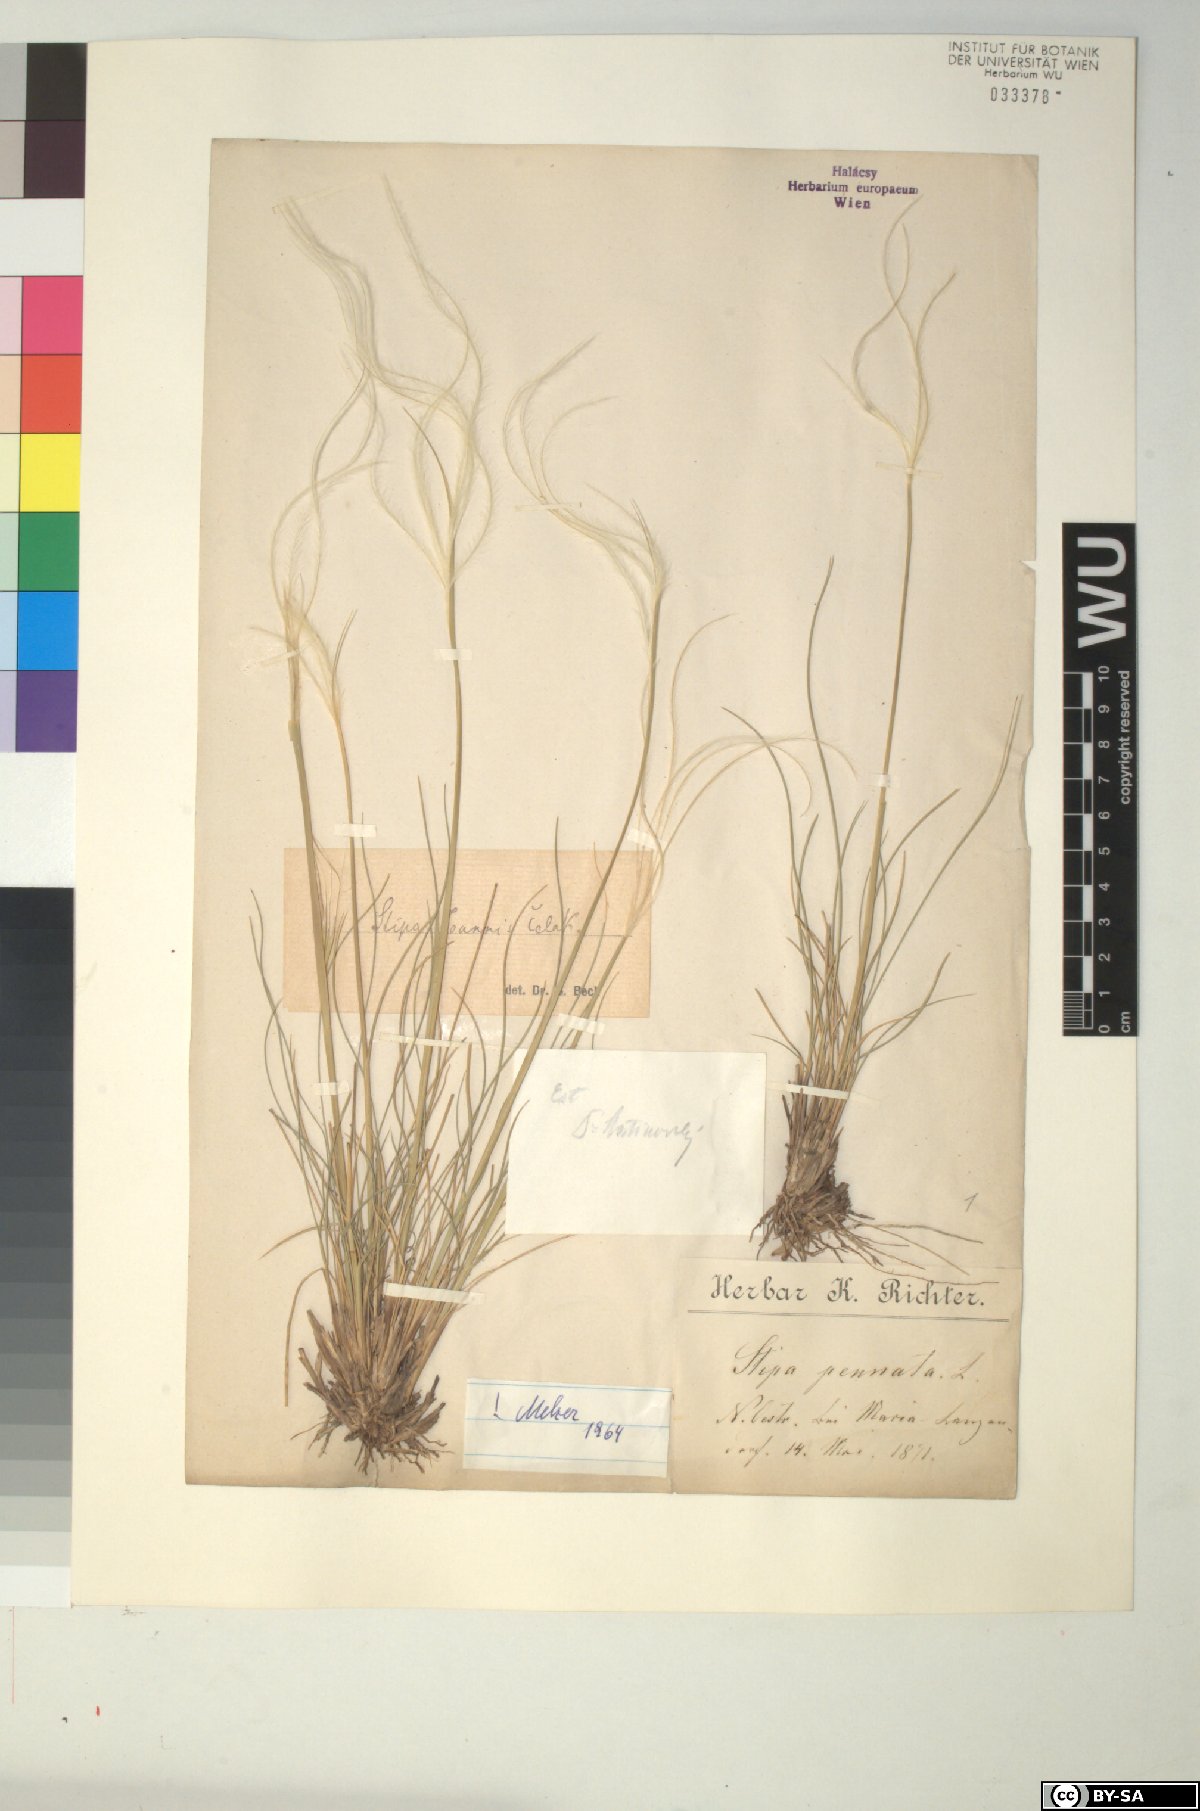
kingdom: Plantae
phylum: Tracheophyta
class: Liliopsida
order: Poales
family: Poaceae
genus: Stipa
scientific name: Stipa pennata
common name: European feather grass
